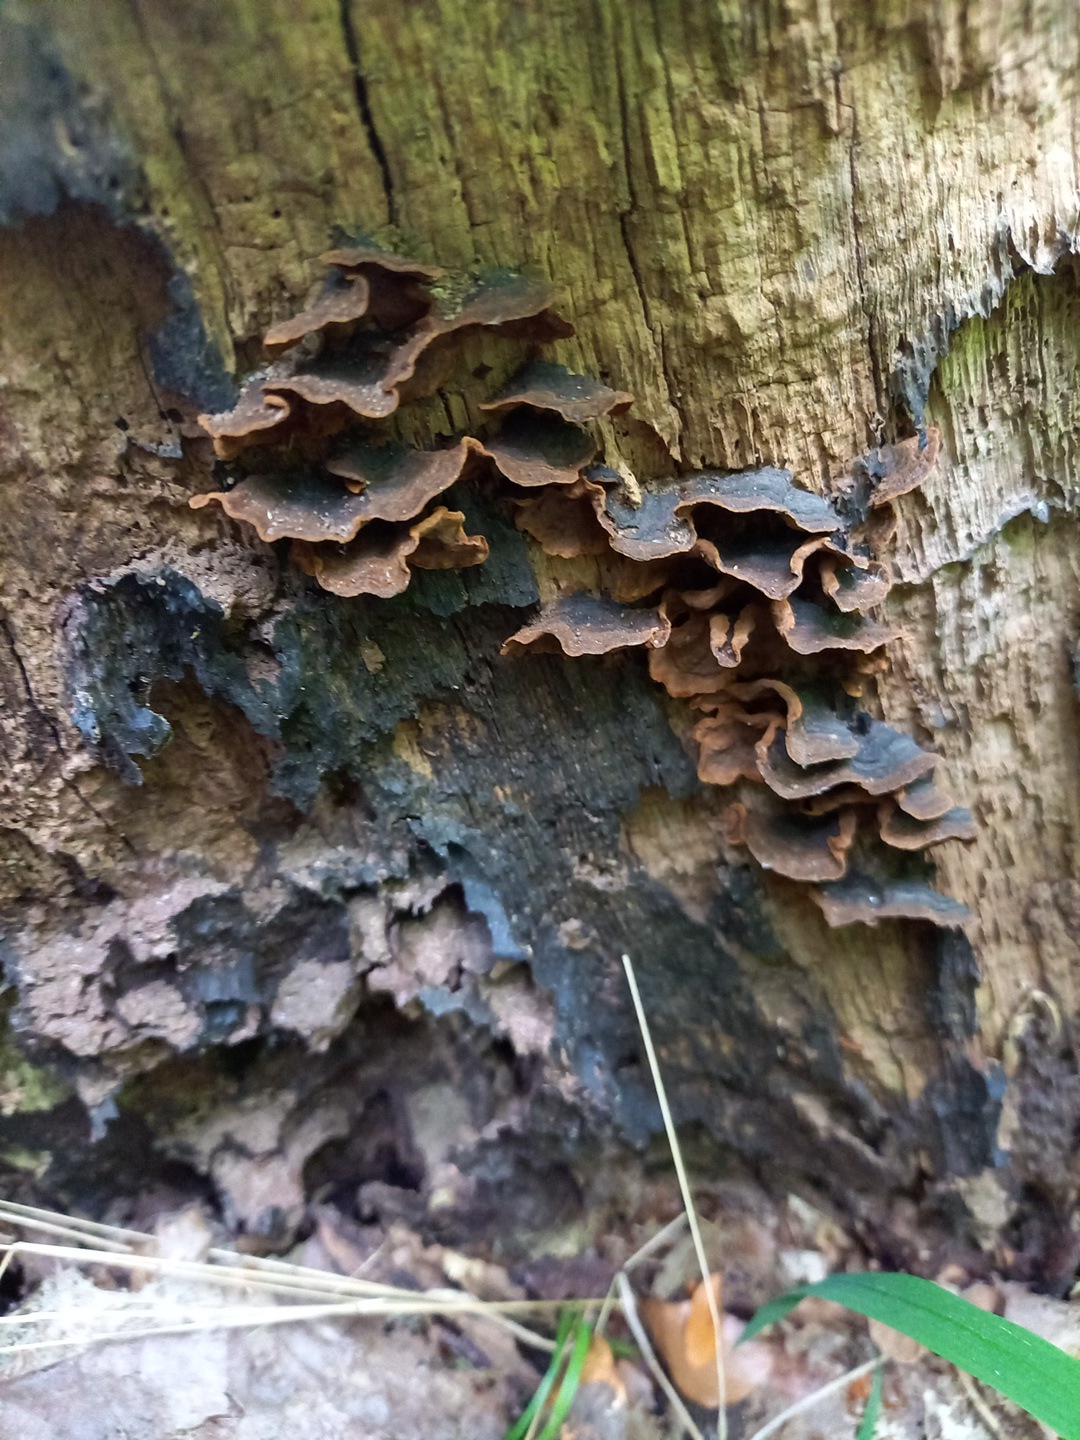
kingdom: Fungi
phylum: Basidiomycota
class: Agaricomycetes
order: Hymenochaetales
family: Hymenochaetaceae
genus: Hymenochaete
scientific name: Hymenochaete rubiginosa
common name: stiv ruslædersvamp
